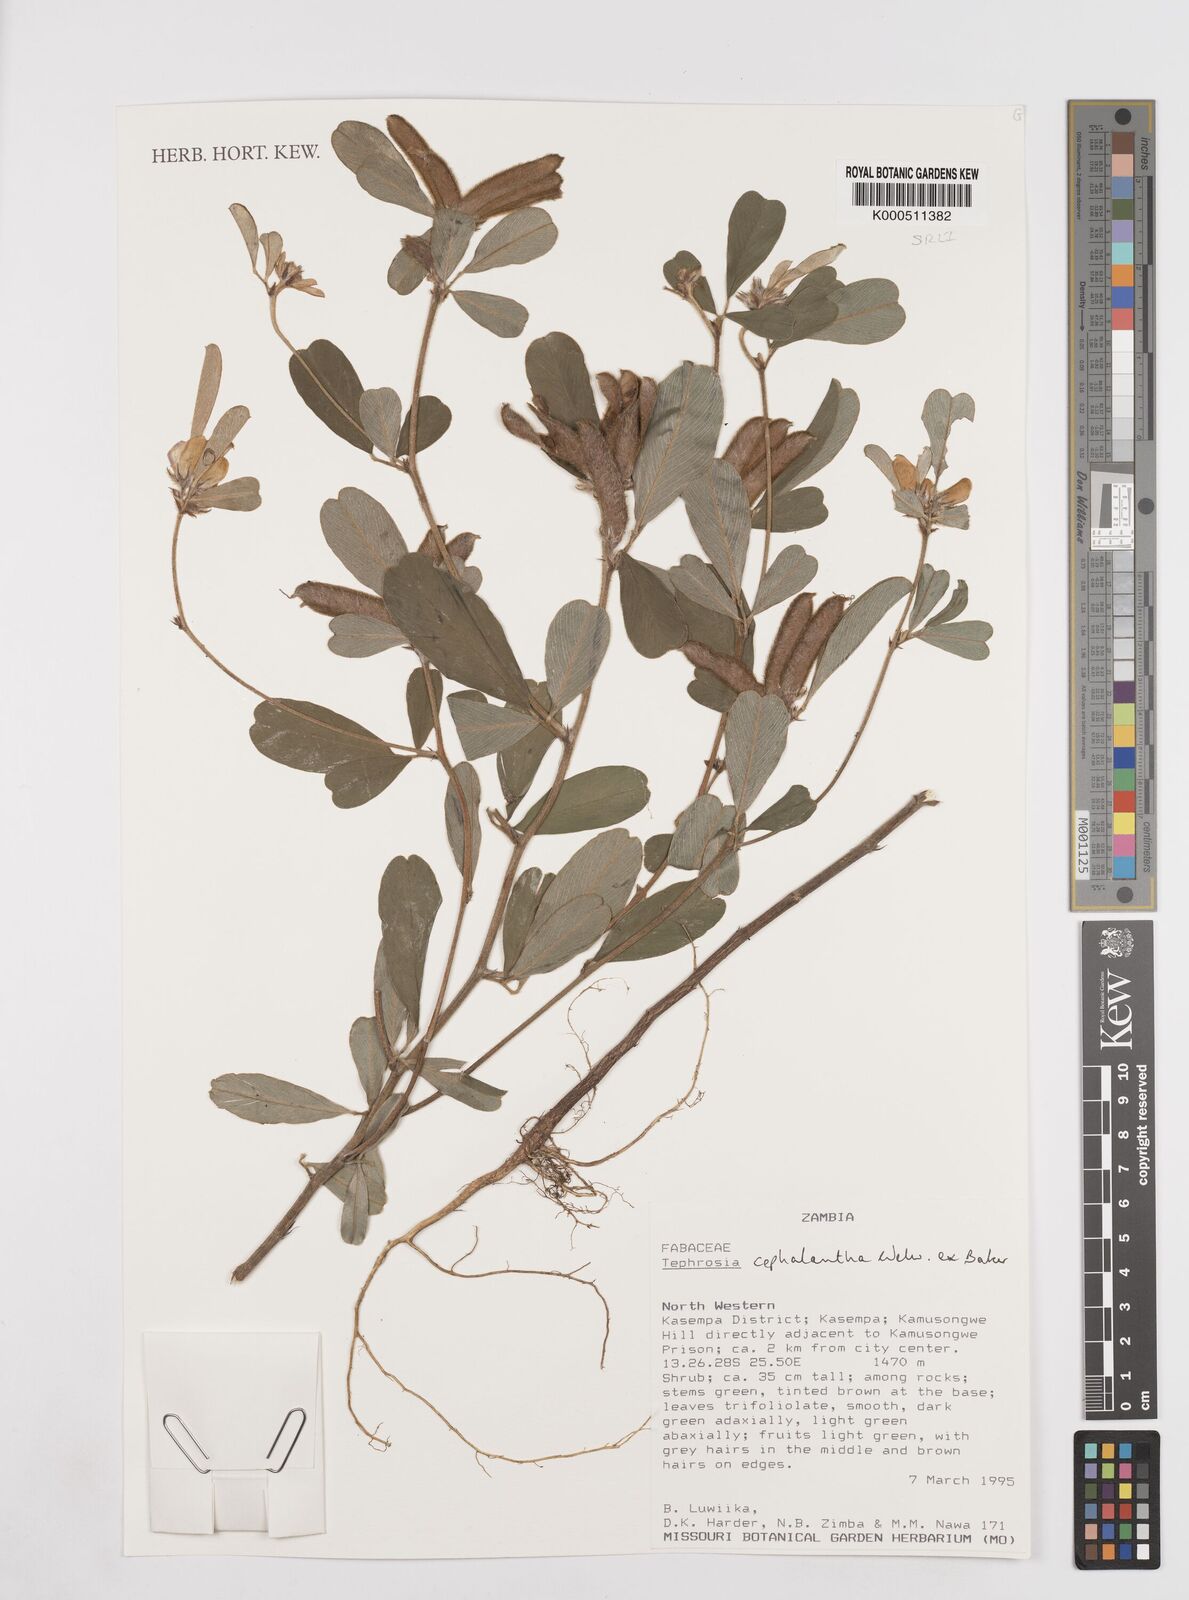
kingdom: Plantae
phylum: Tracheophyta
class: Magnoliopsida
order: Fabales
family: Fabaceae
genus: Tephrosia
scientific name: Tephrosia cephalantha
